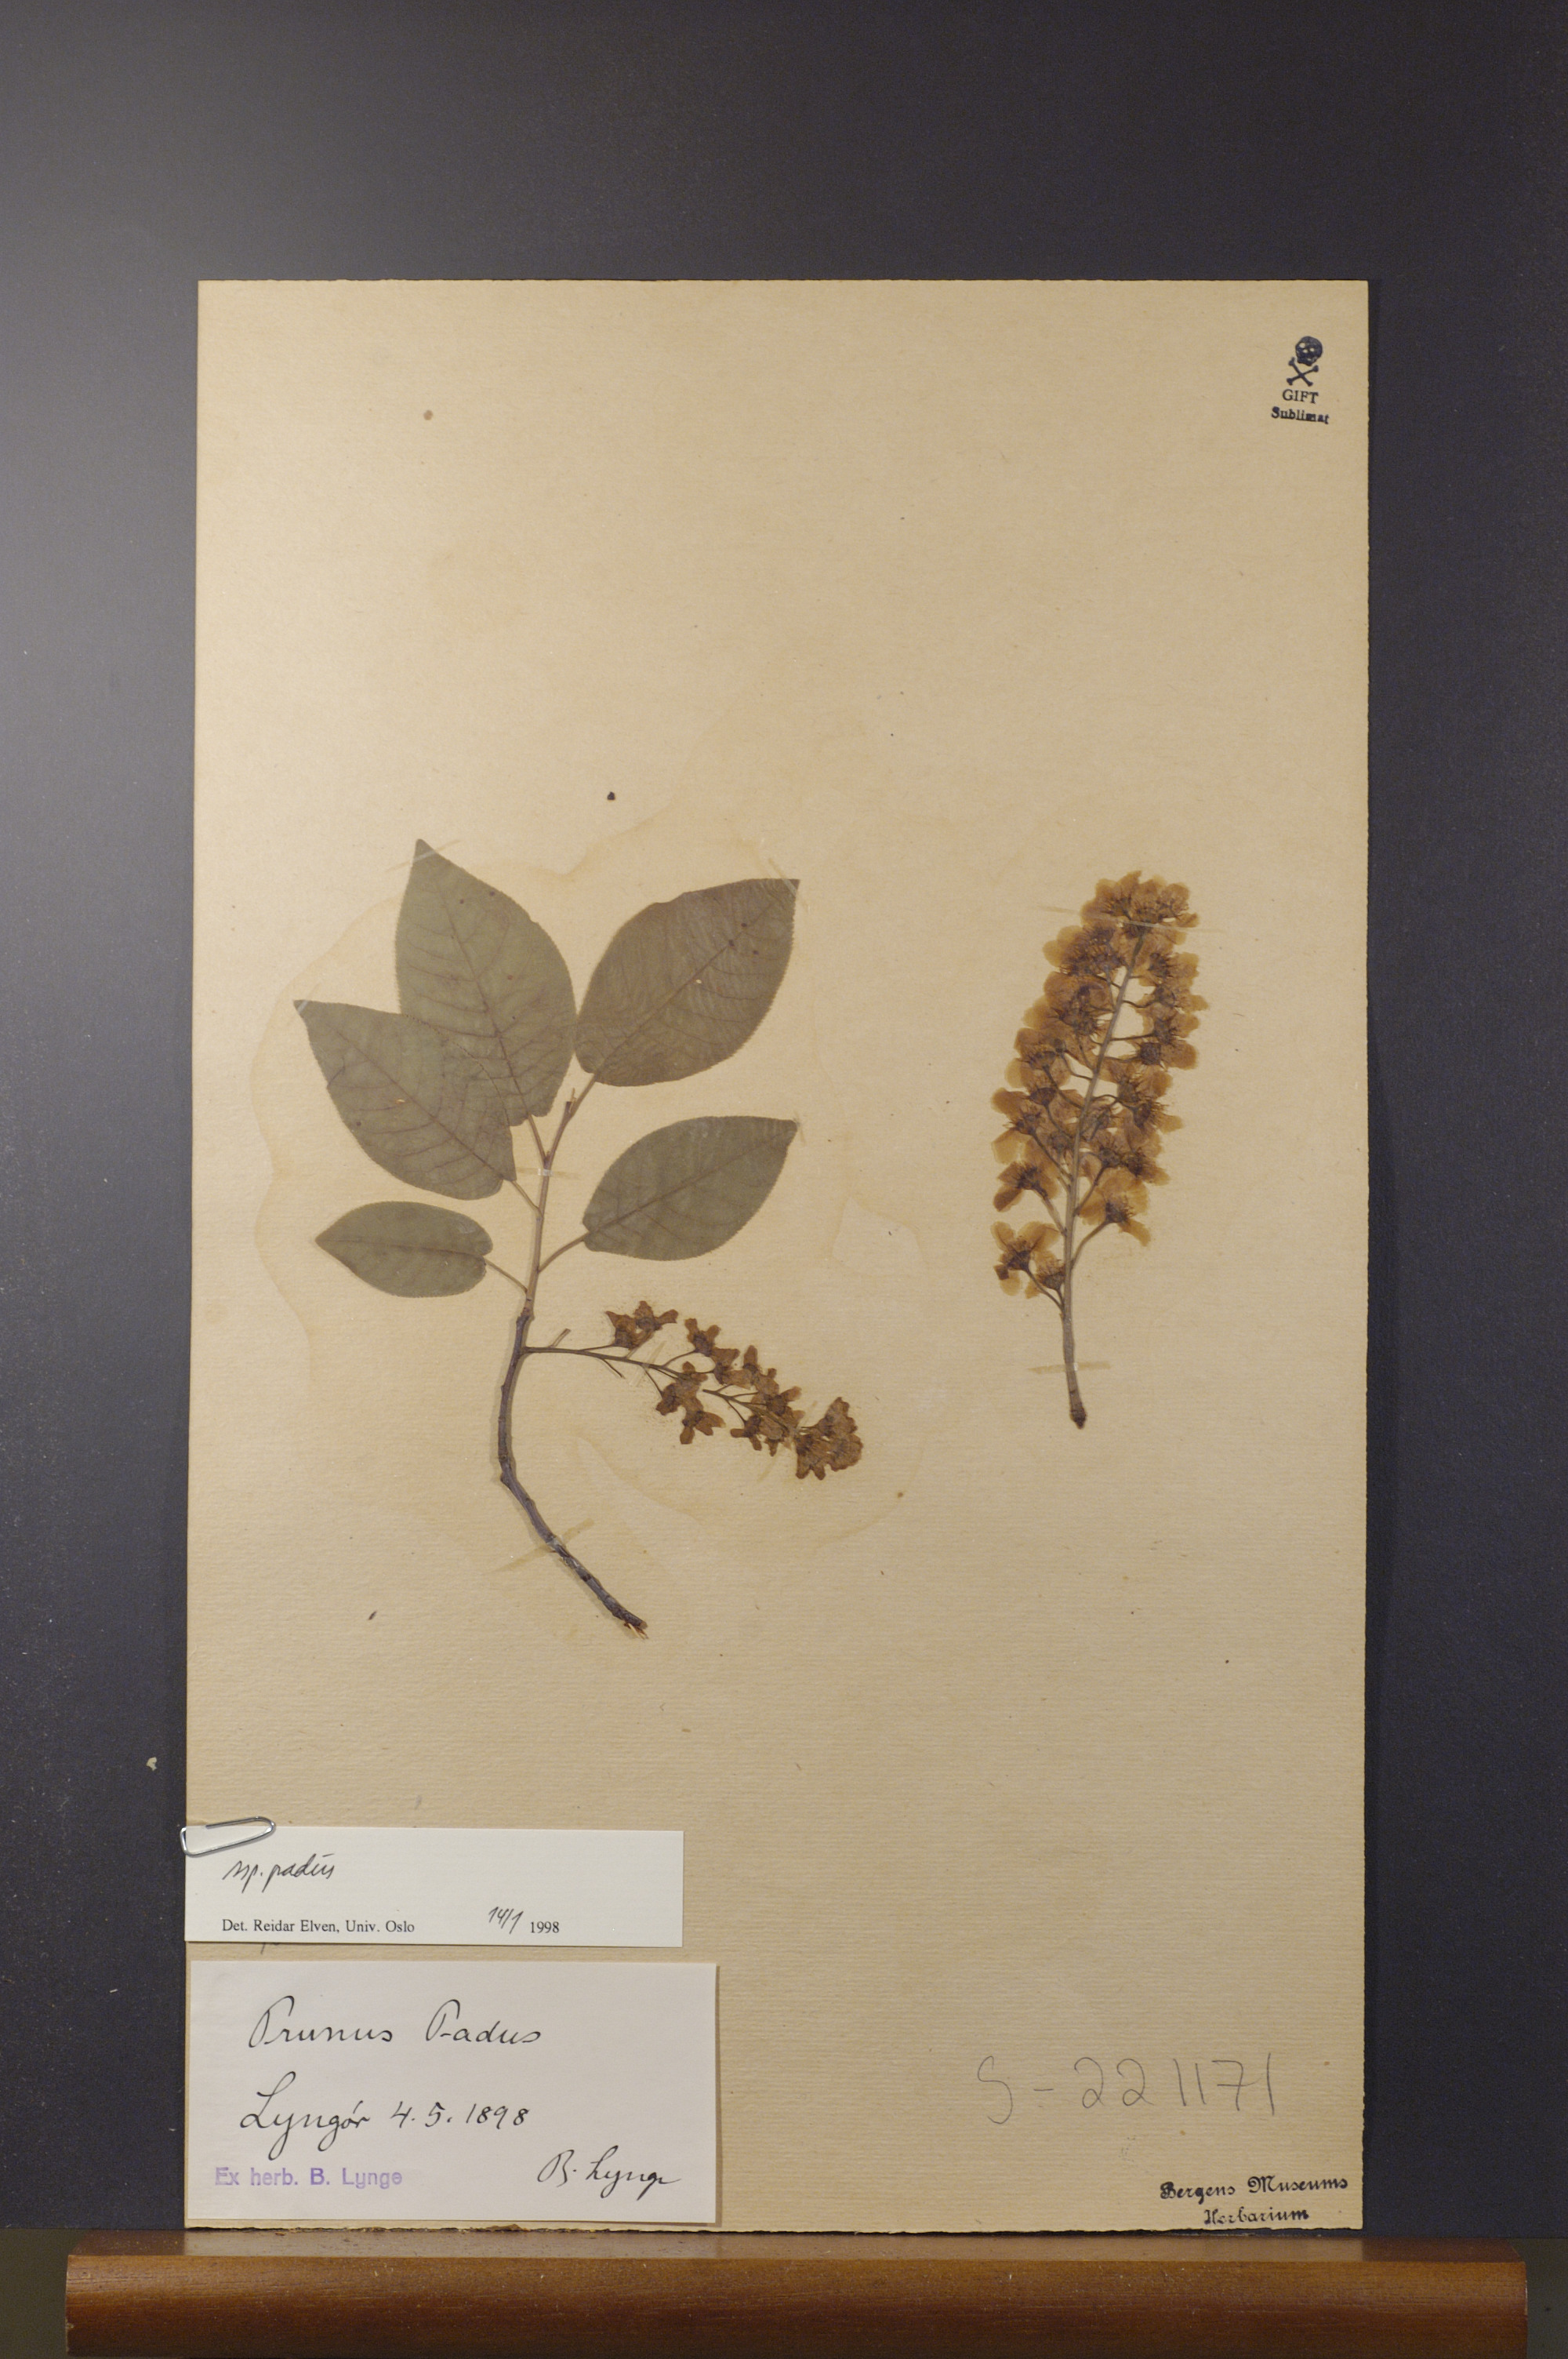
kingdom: Plantae
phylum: Tracheophyta
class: Magnoliopsida
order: Rosales
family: Rosaceae
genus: Prunus
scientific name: Prunus padus
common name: Bird cherry
